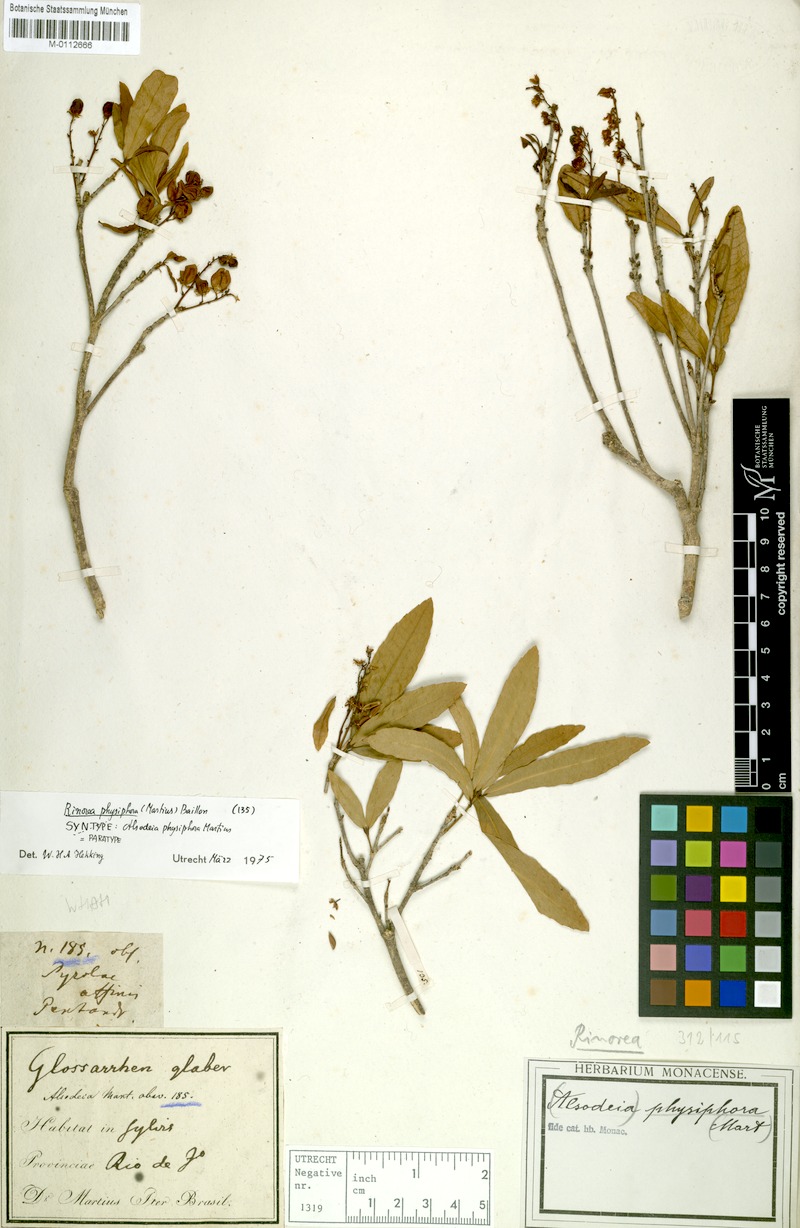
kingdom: Plantae
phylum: Tracheophyta
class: Magnoliopsida
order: Malpighiales
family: Violaceae
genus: Rinorea
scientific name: Rinorea laevigata
